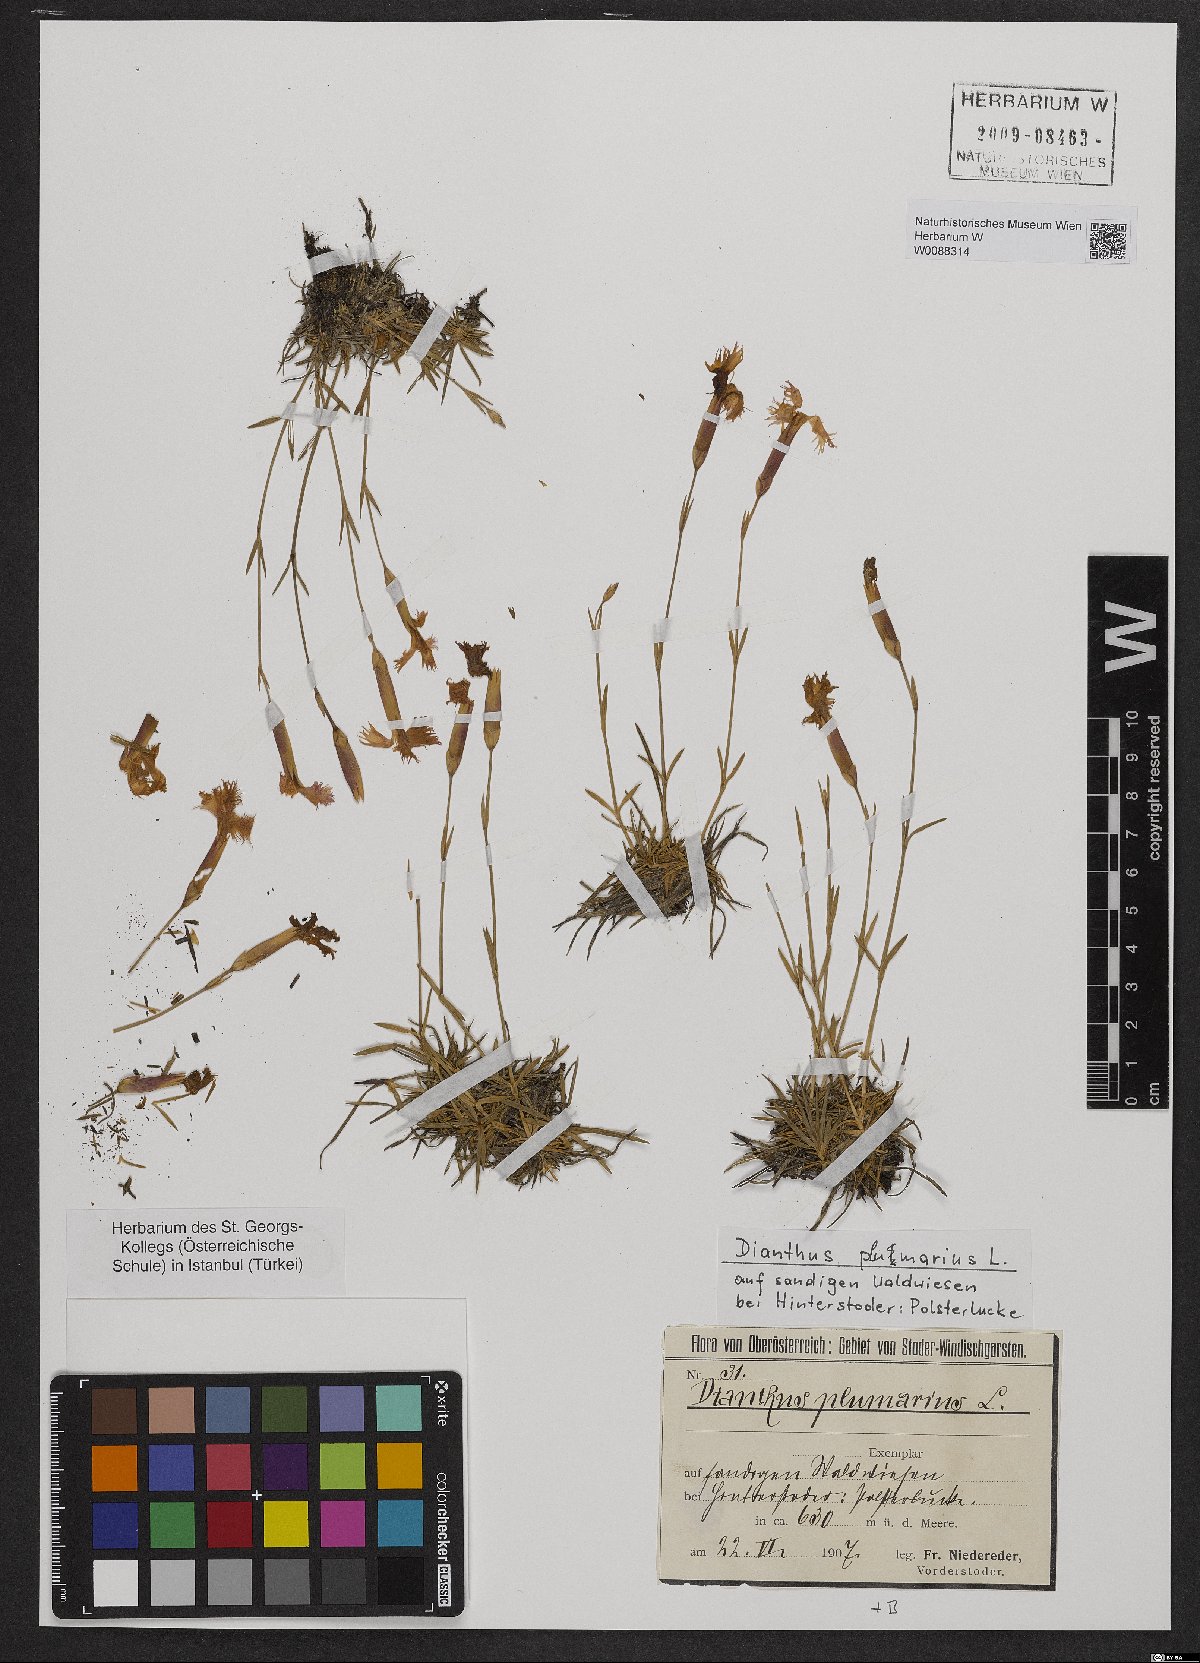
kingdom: Plantae
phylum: Tracheophyta
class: Magnoliopsida
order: Caryophyllales
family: Caryophyllaceae
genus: Dianthus
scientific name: Dianthus plumarius
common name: Pink
